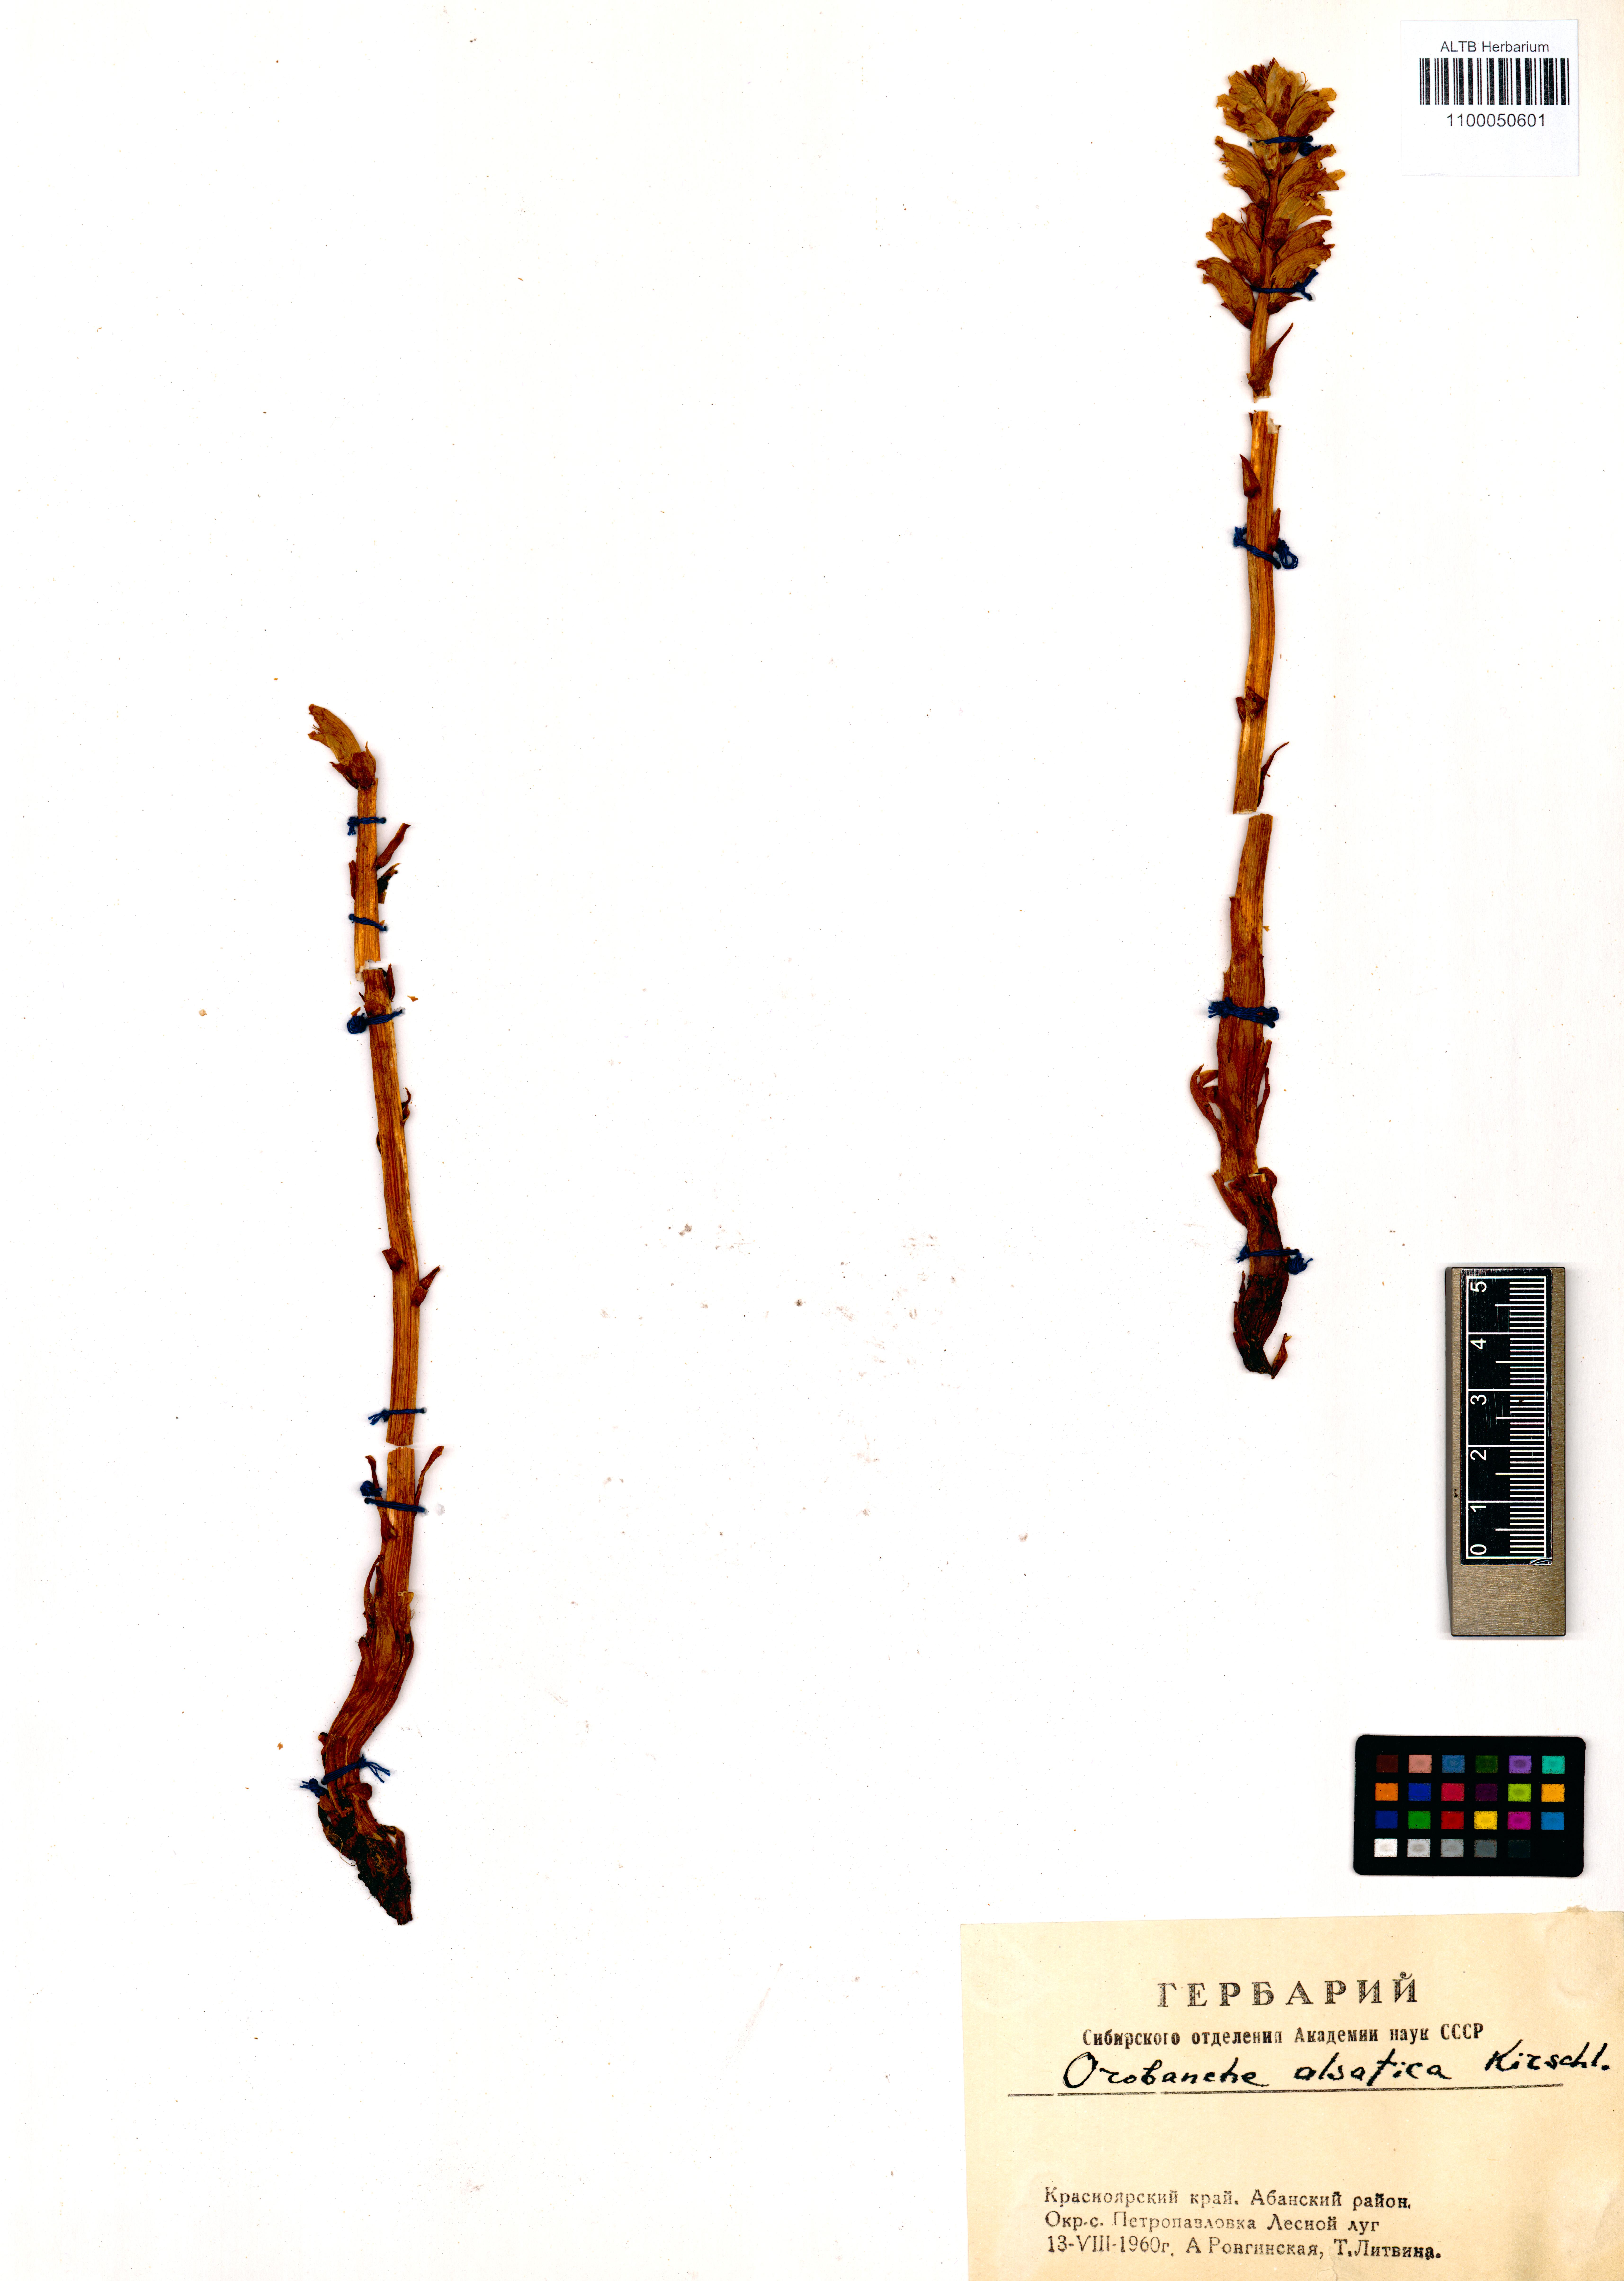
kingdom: Plantae
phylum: Tracheophyta
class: Magnoliopsida
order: Lamiales
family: Orobanchaceae
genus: Orobanche
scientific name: Orobanche alsatica
